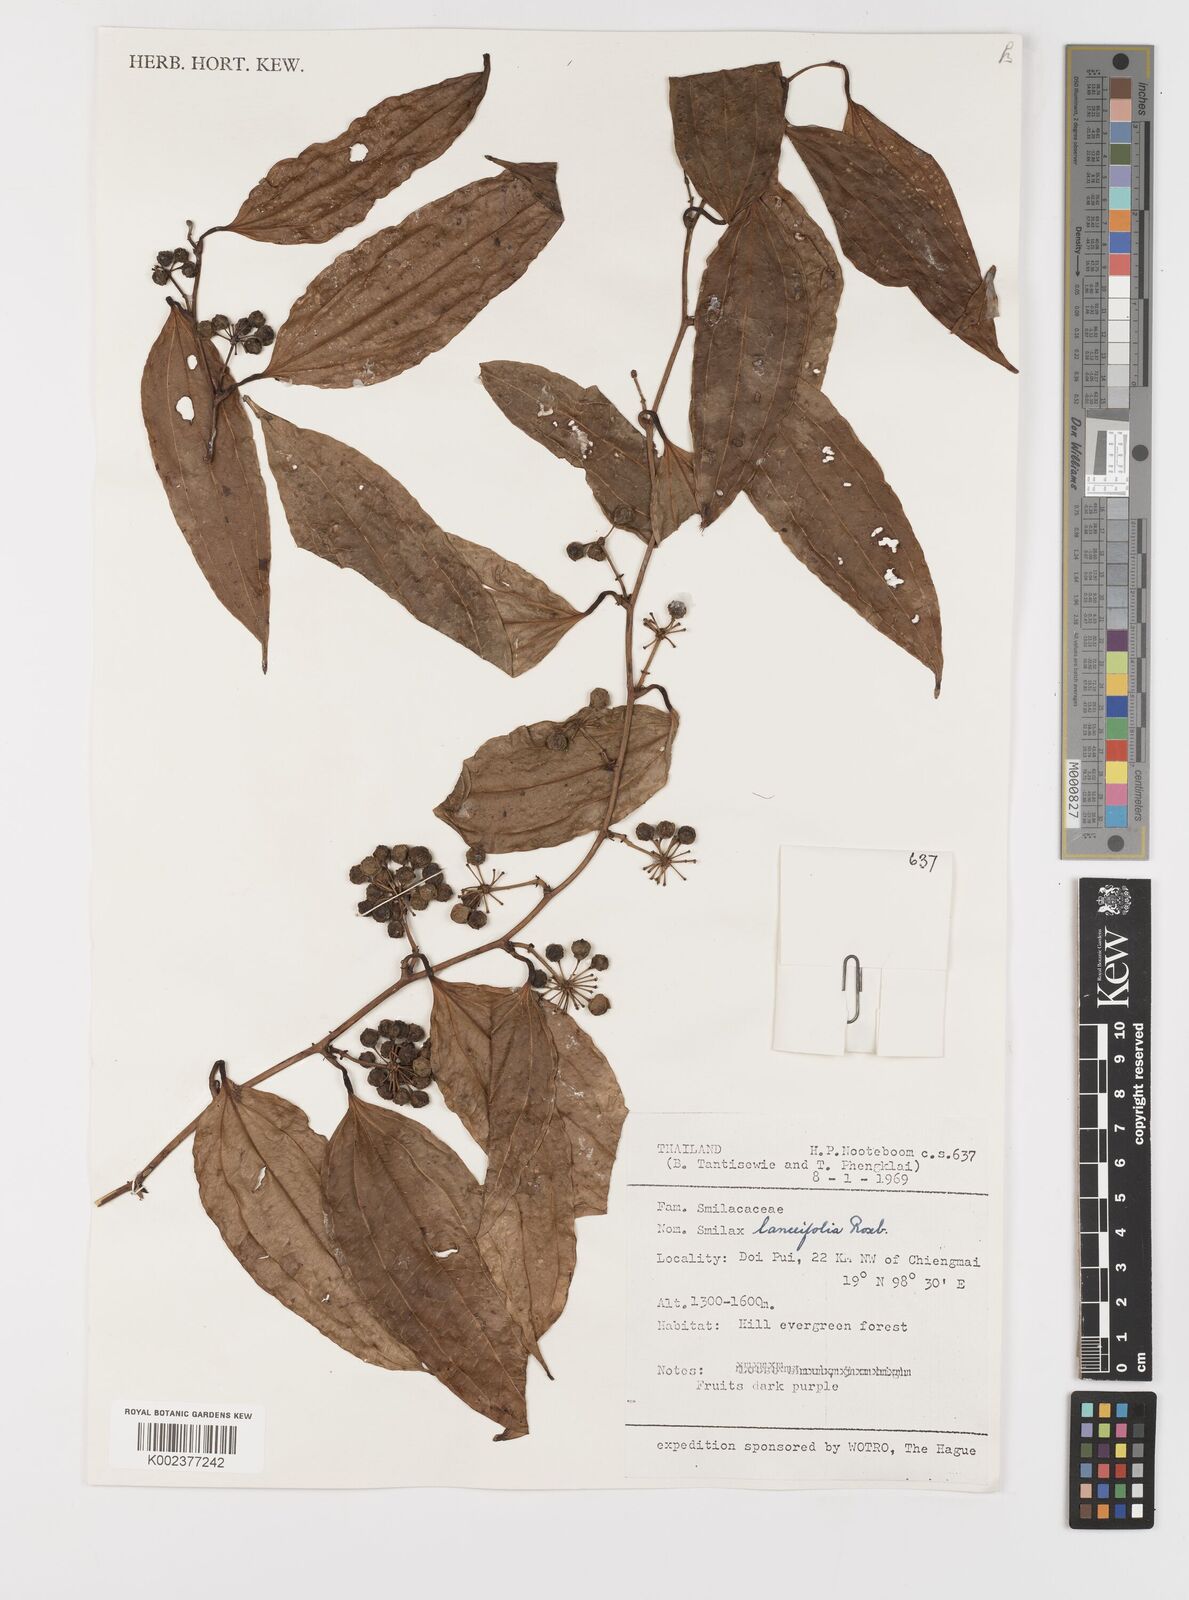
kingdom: Plantae
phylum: Tracheophyta
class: Liliopsida
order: Liliales
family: Smilacaceae
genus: Smilax
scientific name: Smilax lanceifolia
